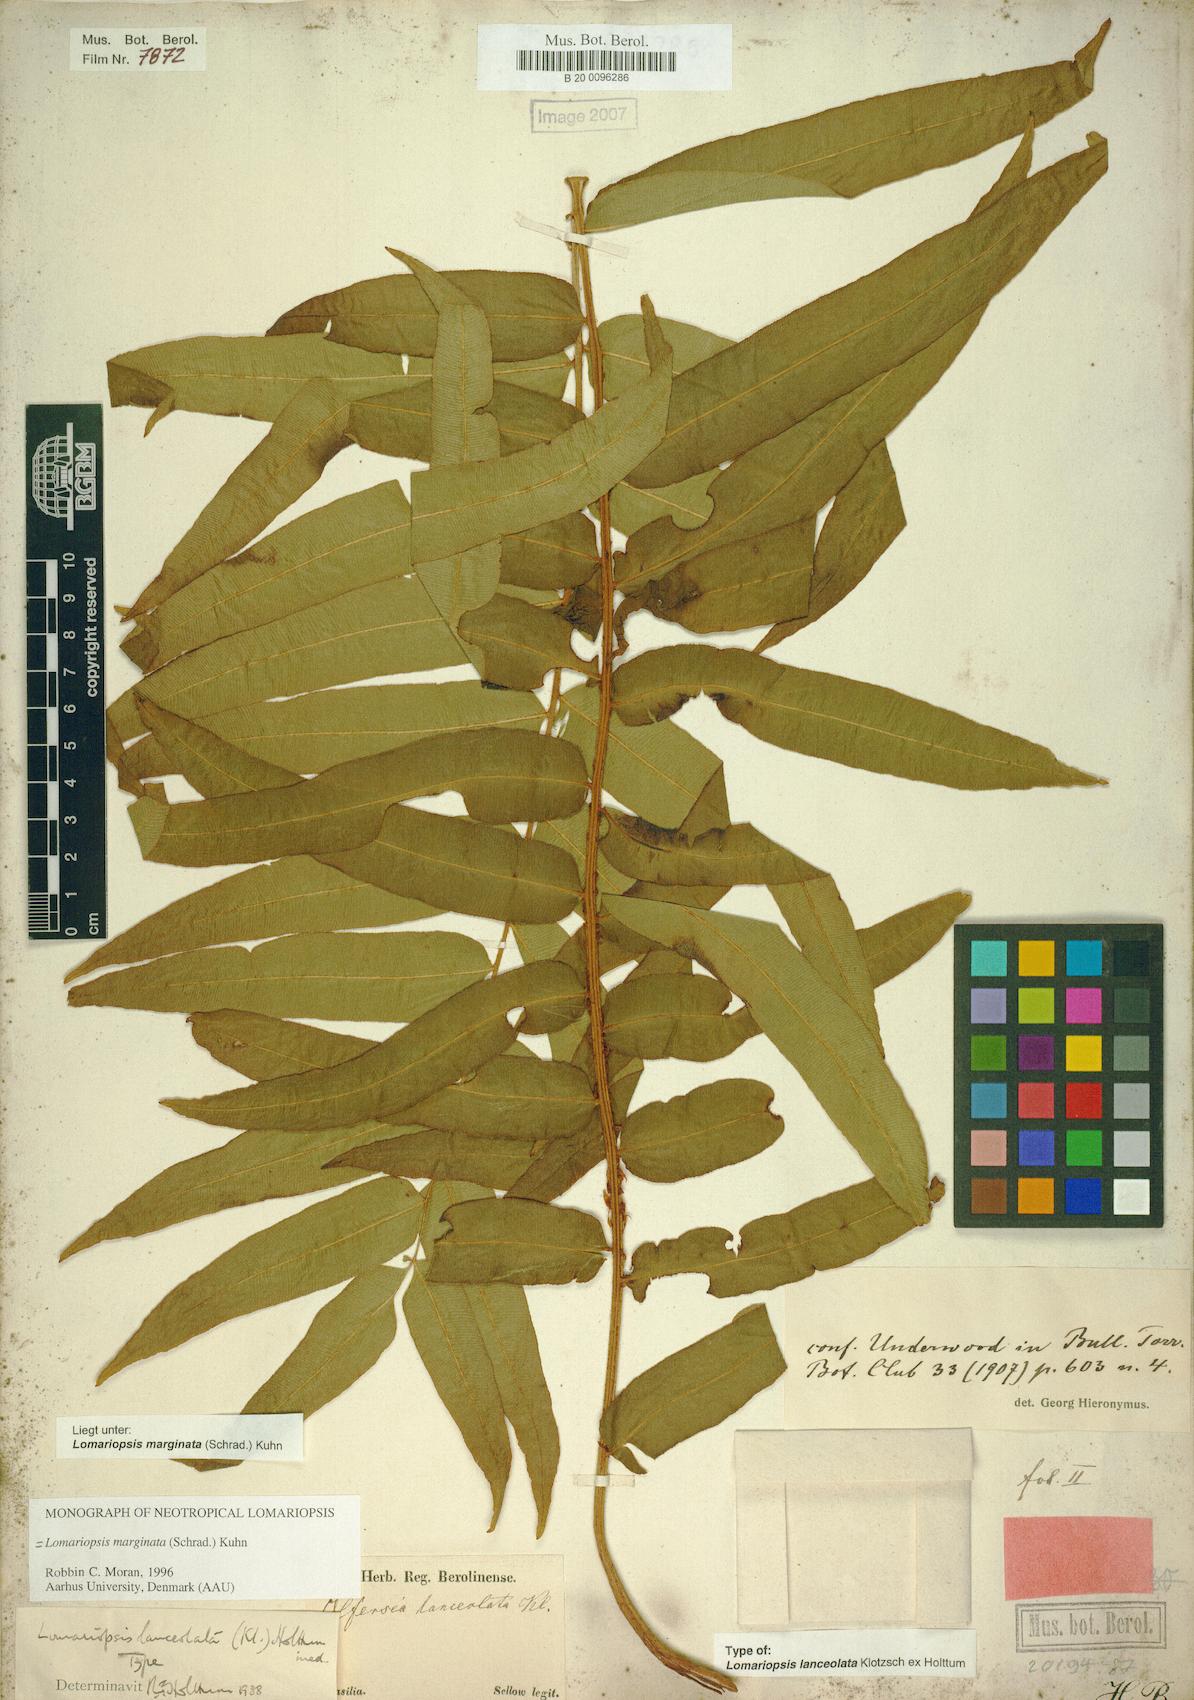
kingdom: Plantae
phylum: Tracheophyta
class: Polypodiopsida
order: Polypodiales
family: Lomariopsidaceae
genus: Lomariopsis
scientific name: Lomariopsis marginata
